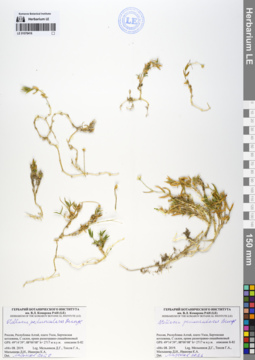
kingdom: Plantae
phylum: Tracheophyta
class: Magnoliopsida
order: Caryophyllales
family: Caryophyllaceae
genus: Stellaria
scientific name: Stellaria peduncularis
